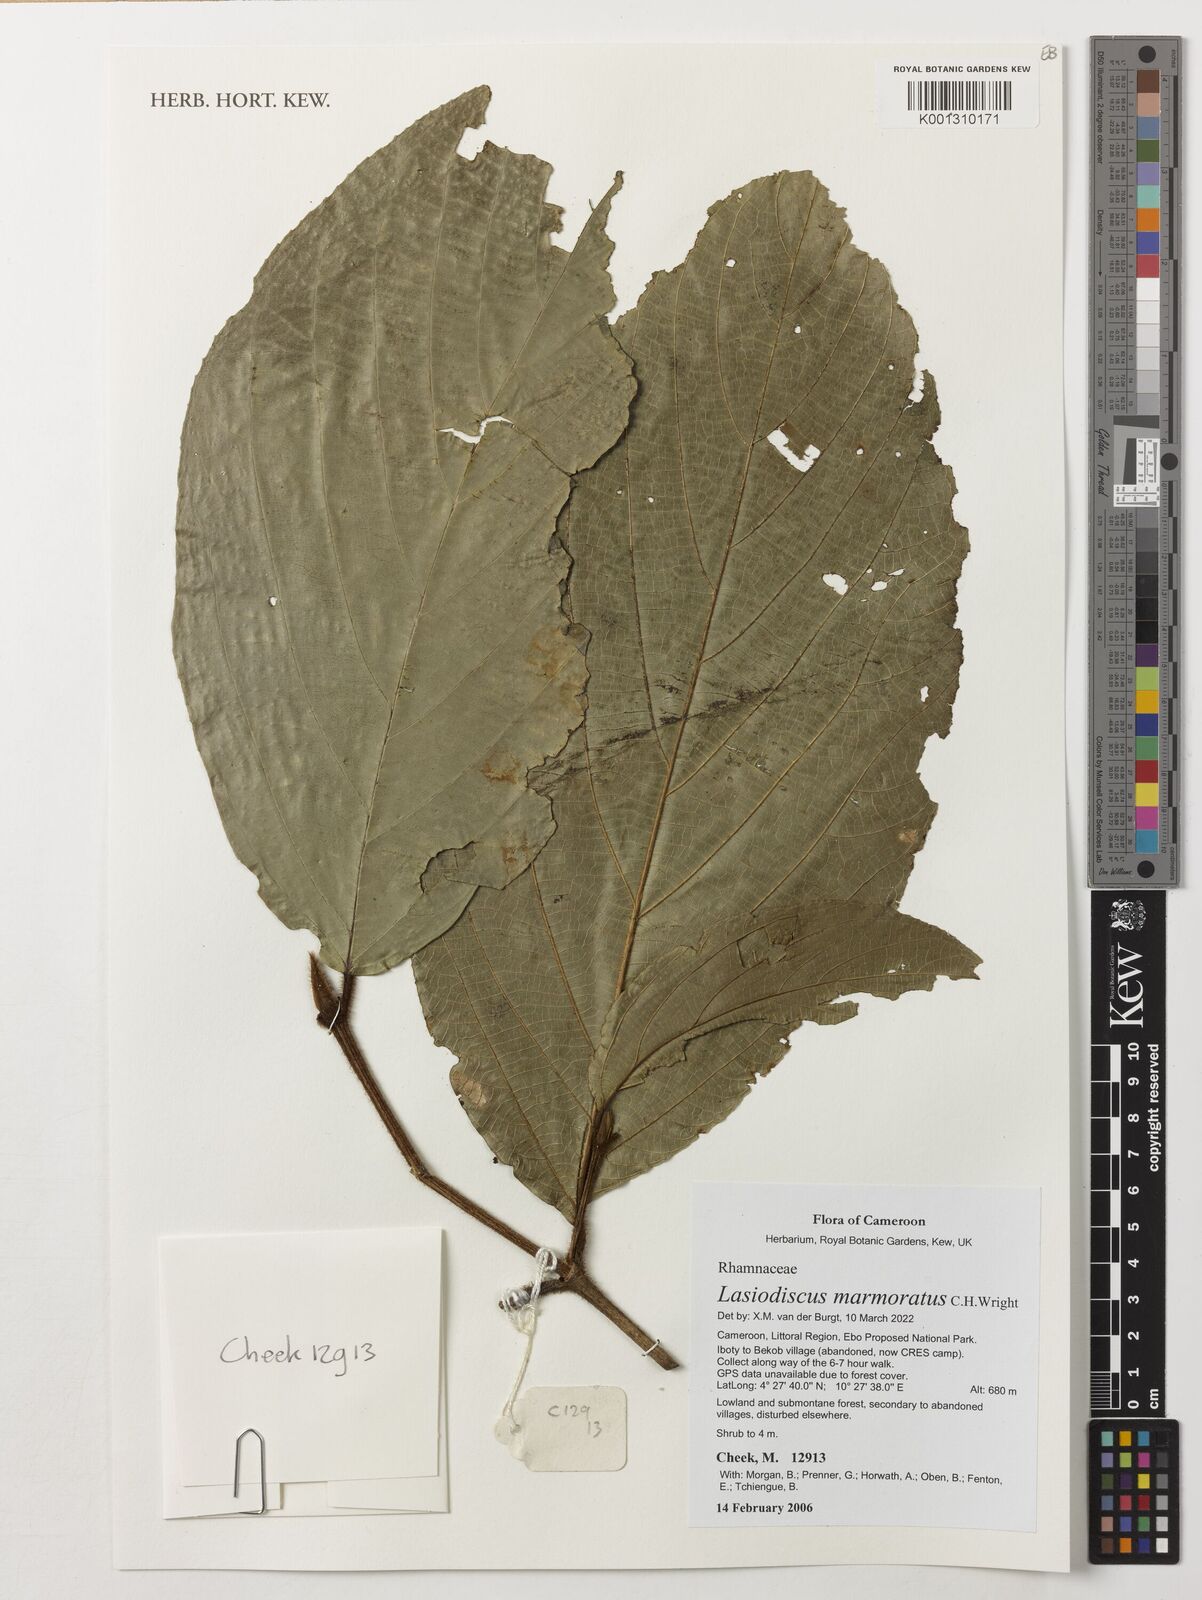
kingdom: Plantae
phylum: Tracheophyta
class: Magnoliopsida
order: Rosales
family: Rhamnaceae
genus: Lasiodiscus
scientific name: Lasiodiscus marmoratus
